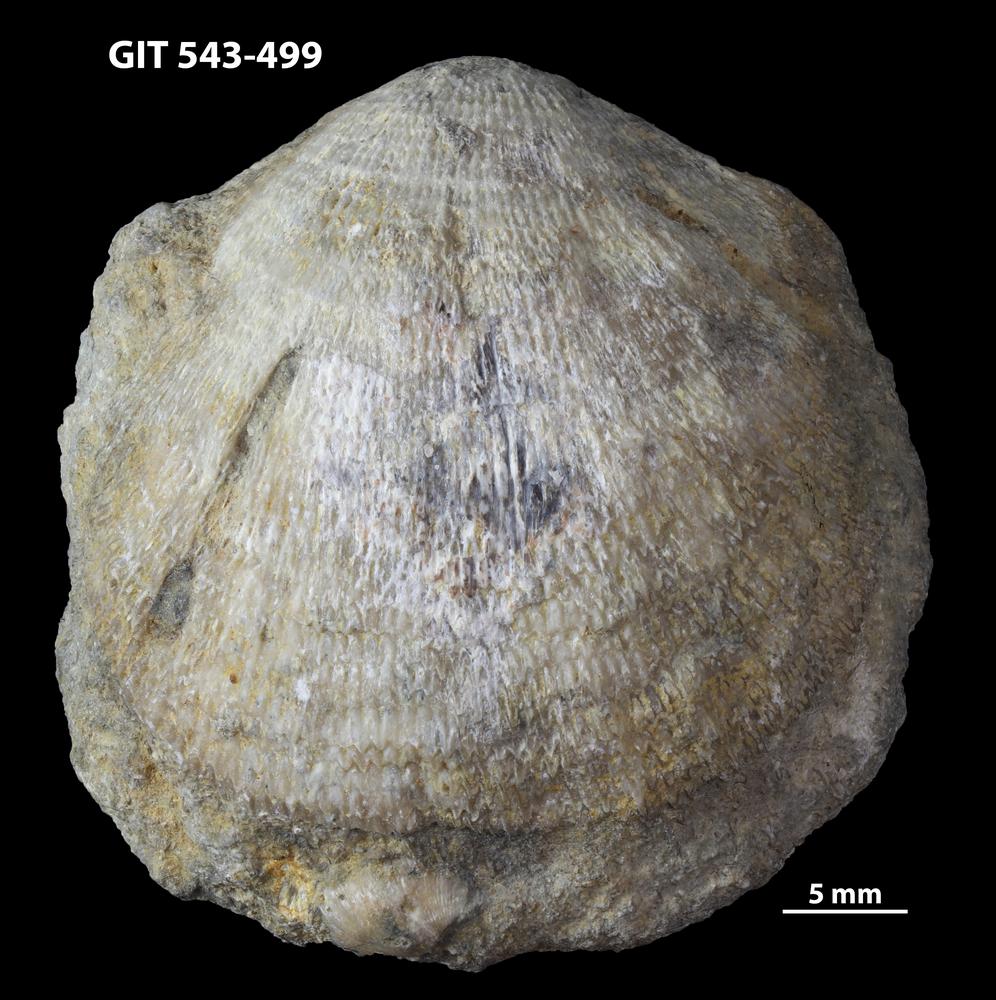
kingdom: Animalia
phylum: Brachiopoda
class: Rhynchonellata
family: Clitambonitidae
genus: Clitambonites
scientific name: Clitambonites Orthisina schmidti
